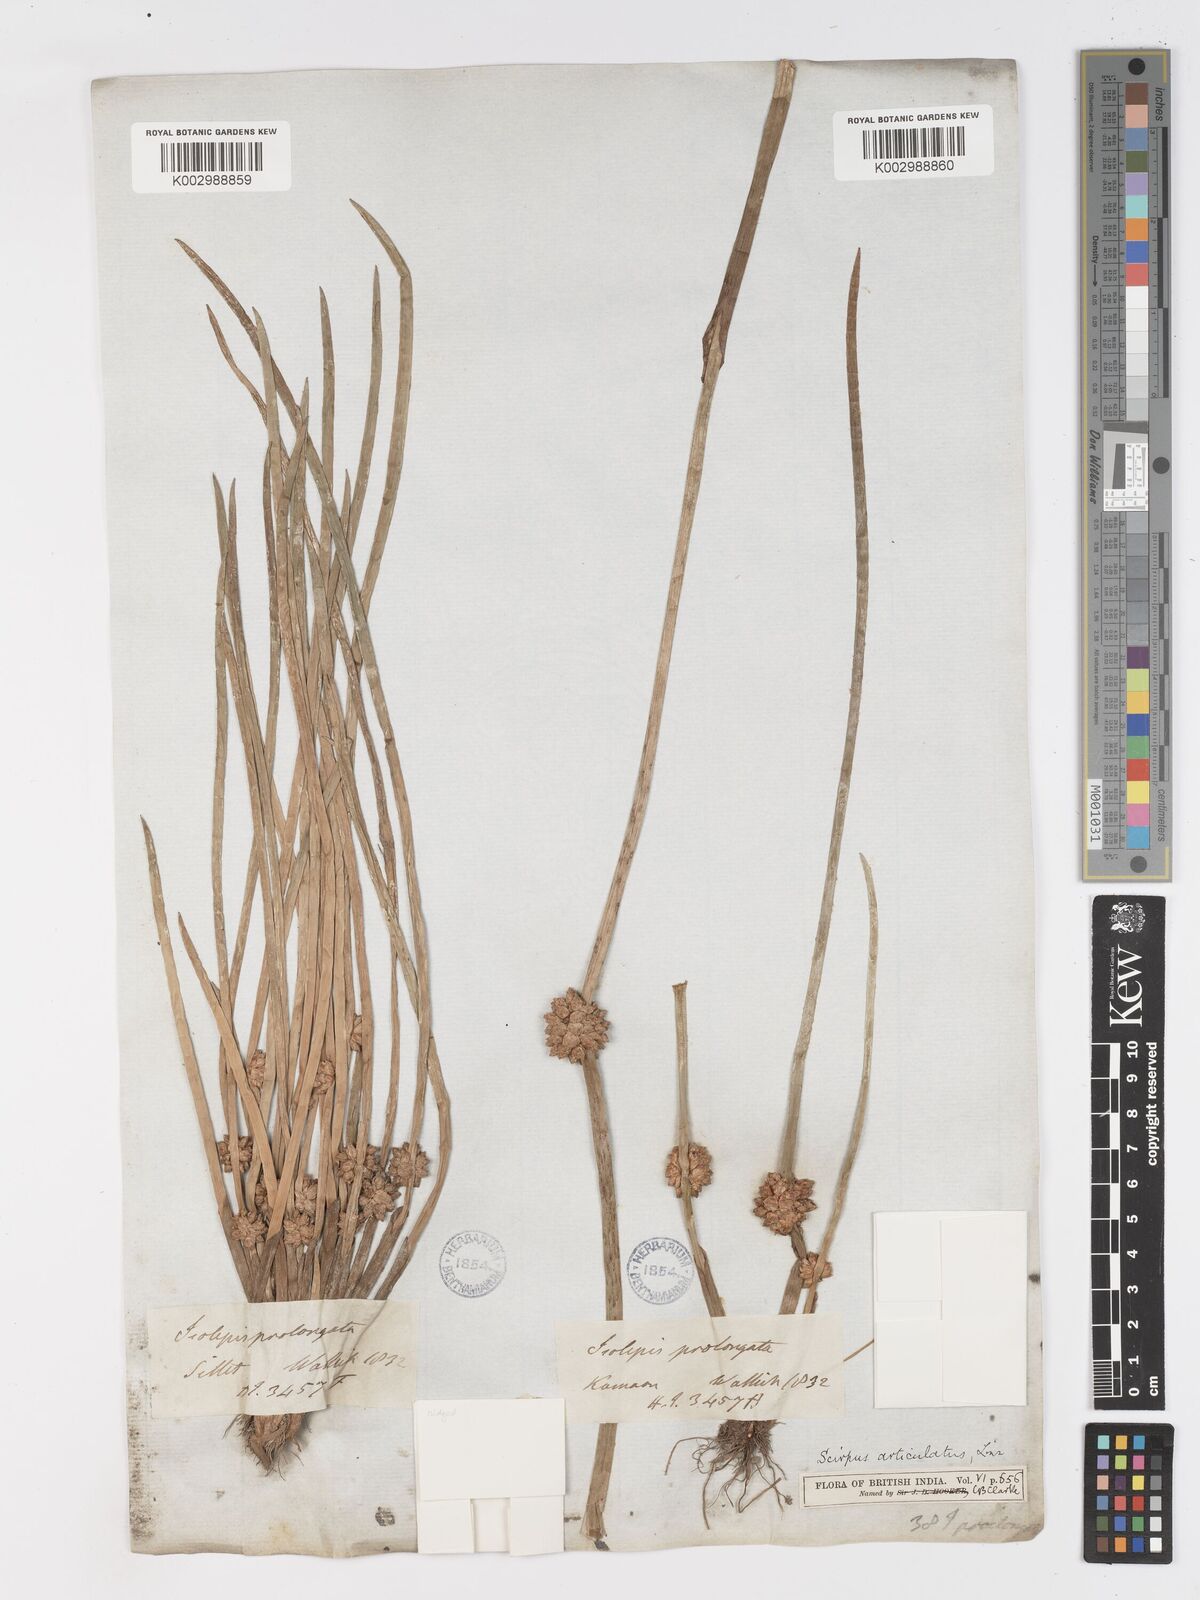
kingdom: Plantae
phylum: Tracheophyta
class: Liliopsida
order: Poales
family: Cyperaceae
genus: Schoenoplectiella
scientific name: Schoenoplectiella praelongata
